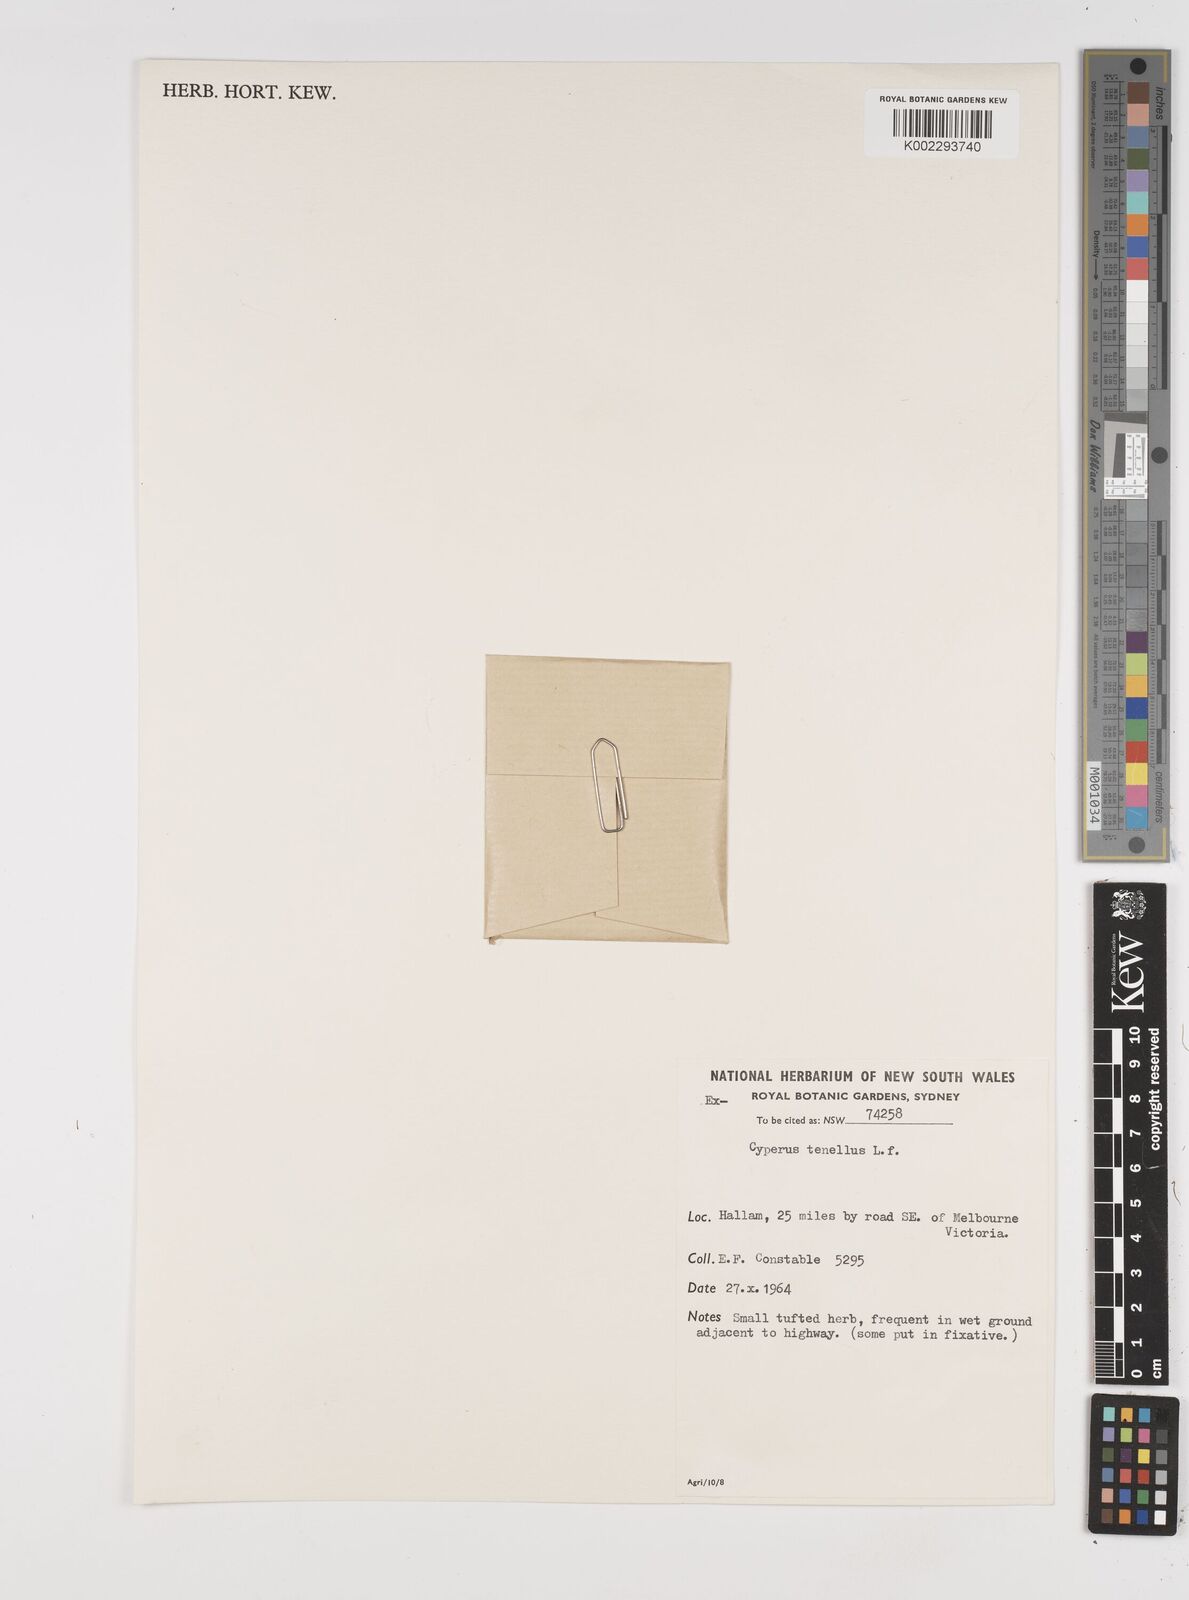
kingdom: Plantae
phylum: Tracheophyta
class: Liliopsida
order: Poales
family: Cyperaceae
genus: Isolepis
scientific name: Isolepis levynsiana
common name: Sedge
